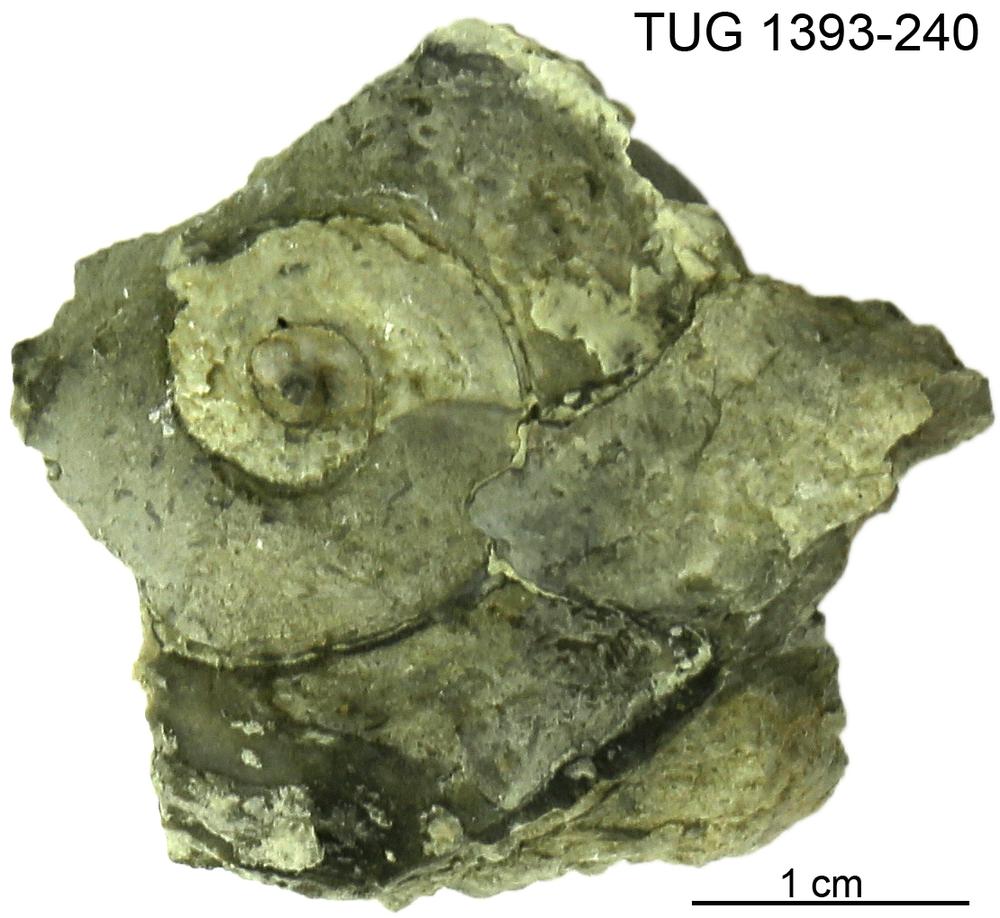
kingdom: Animalia
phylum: Mollusca
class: Gastropoda
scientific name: Gastropoda
